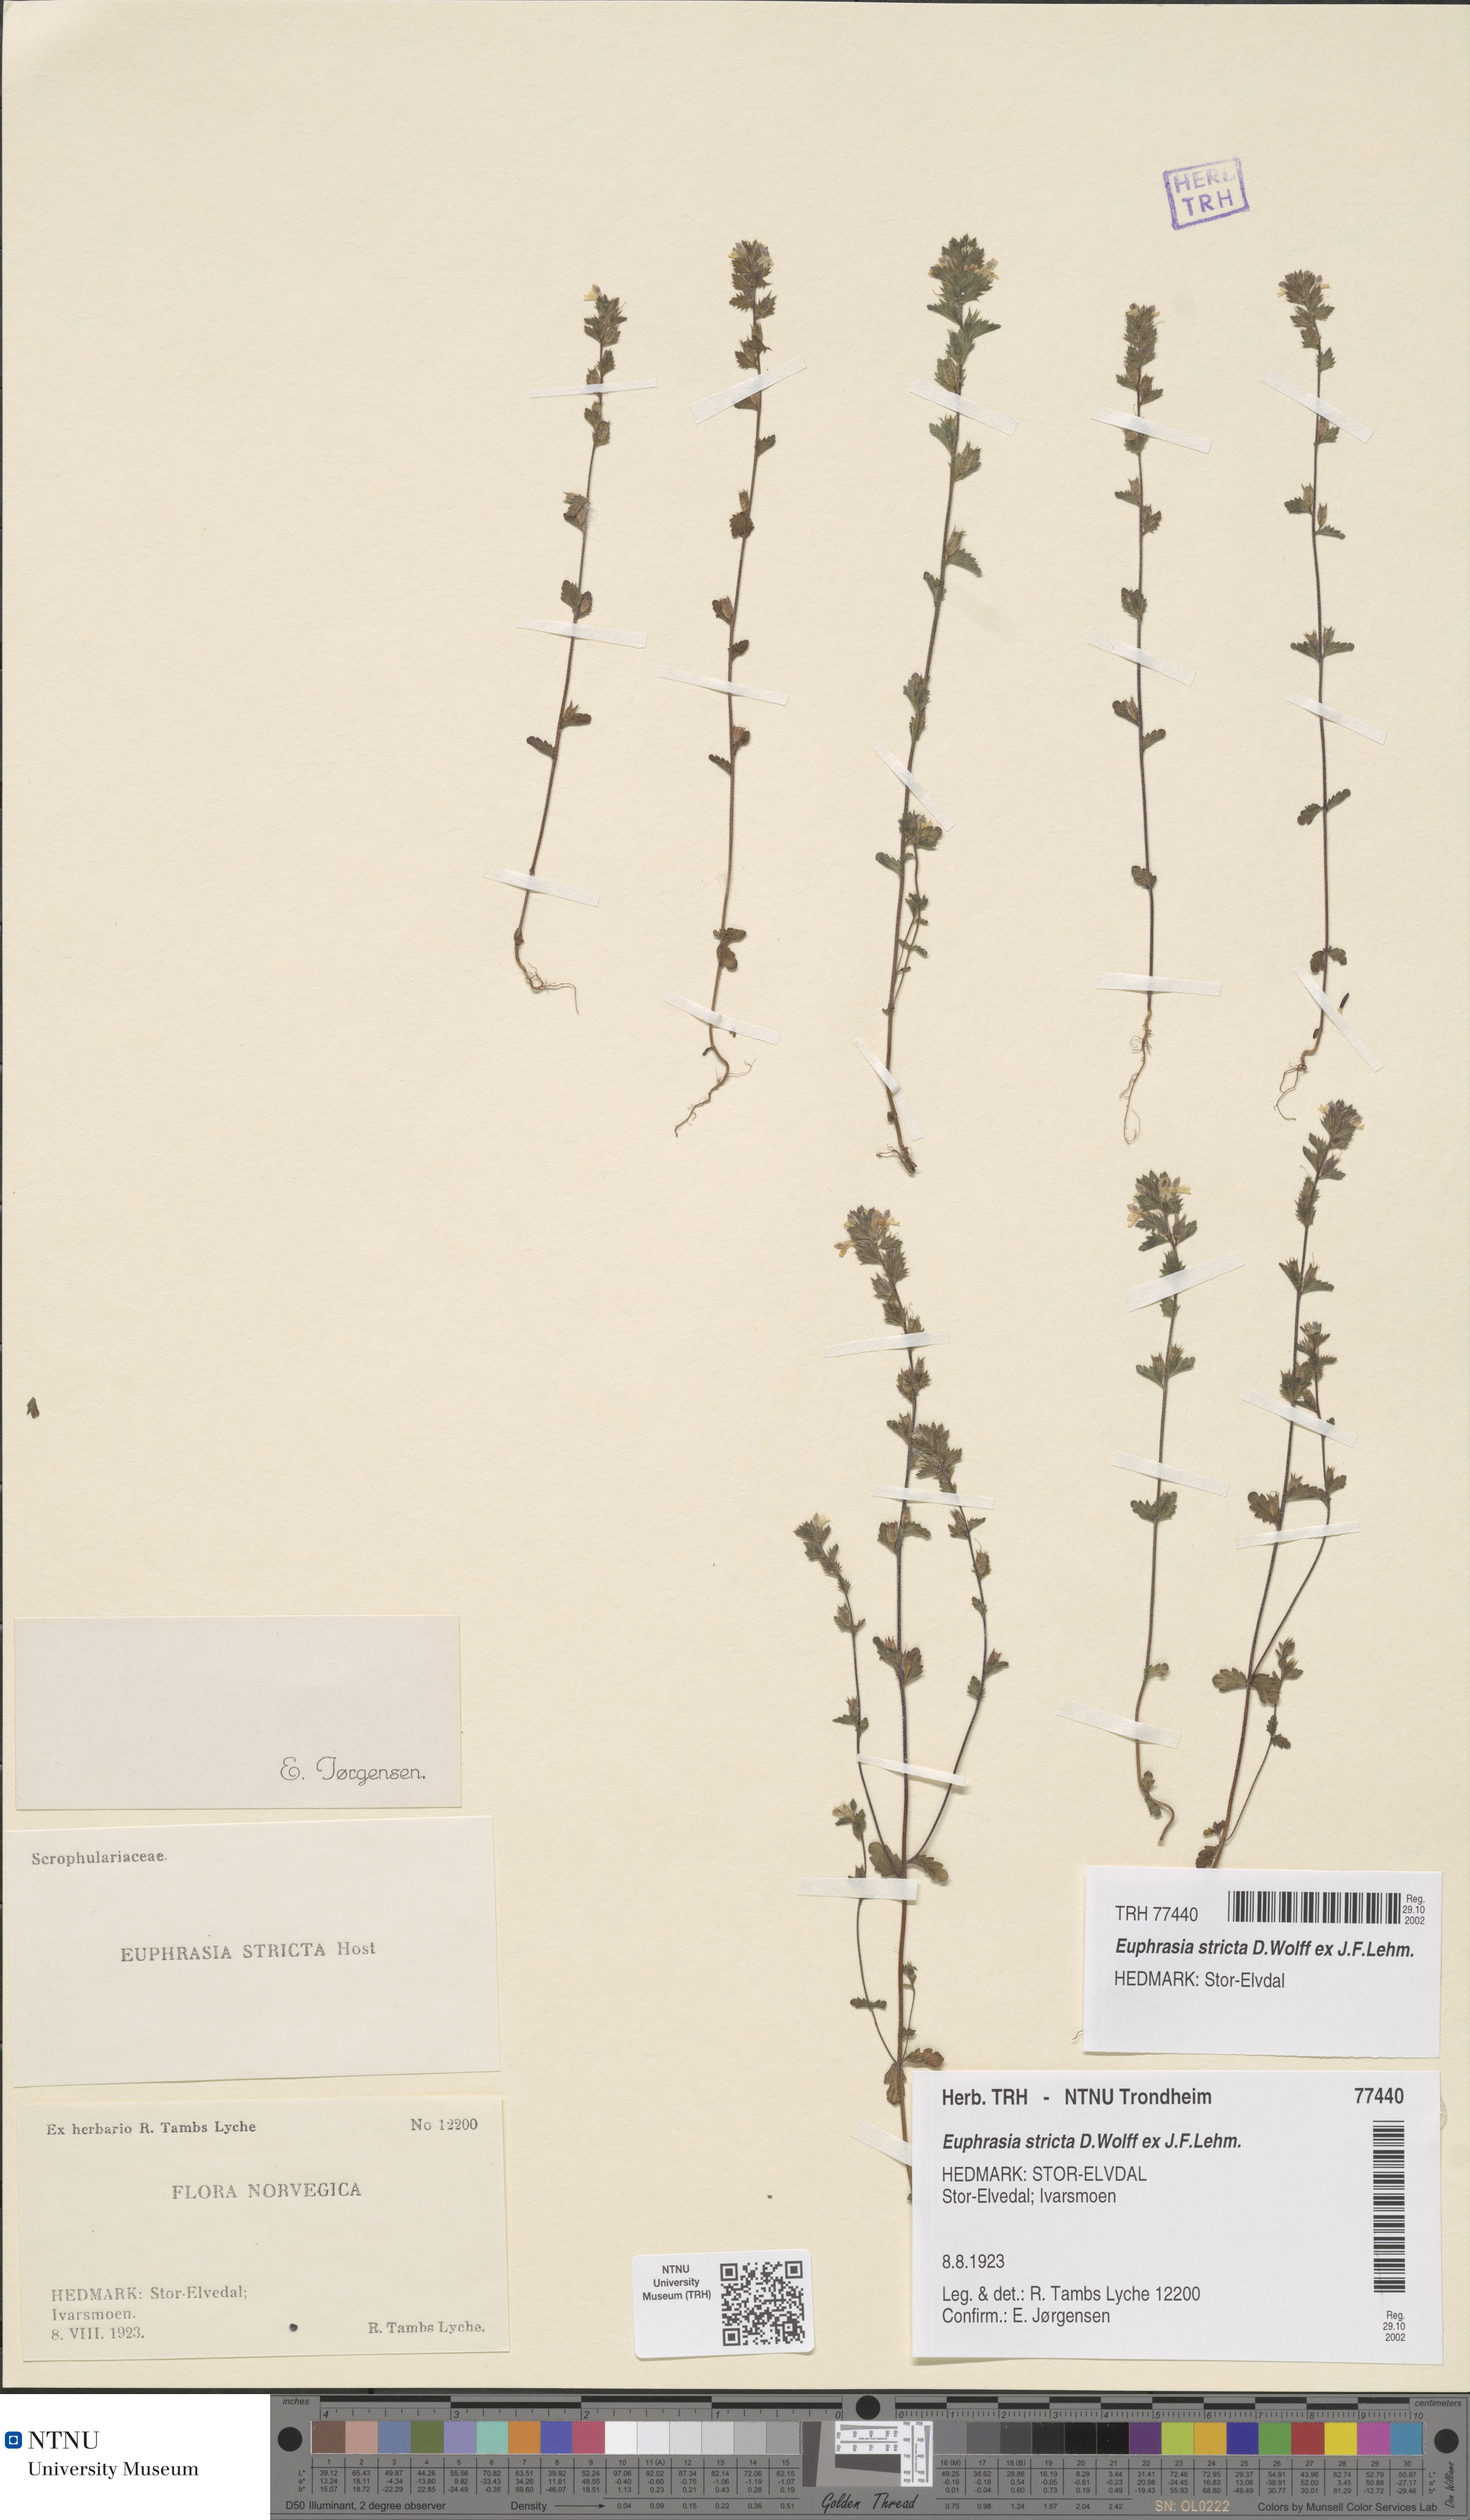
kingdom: Plantae
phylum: Tracheophyta
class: Magnoliopsida
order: Lamiales
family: Orobanchaceae
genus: Euphrasia
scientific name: Euphrasia stricta
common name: Drug eyebright
